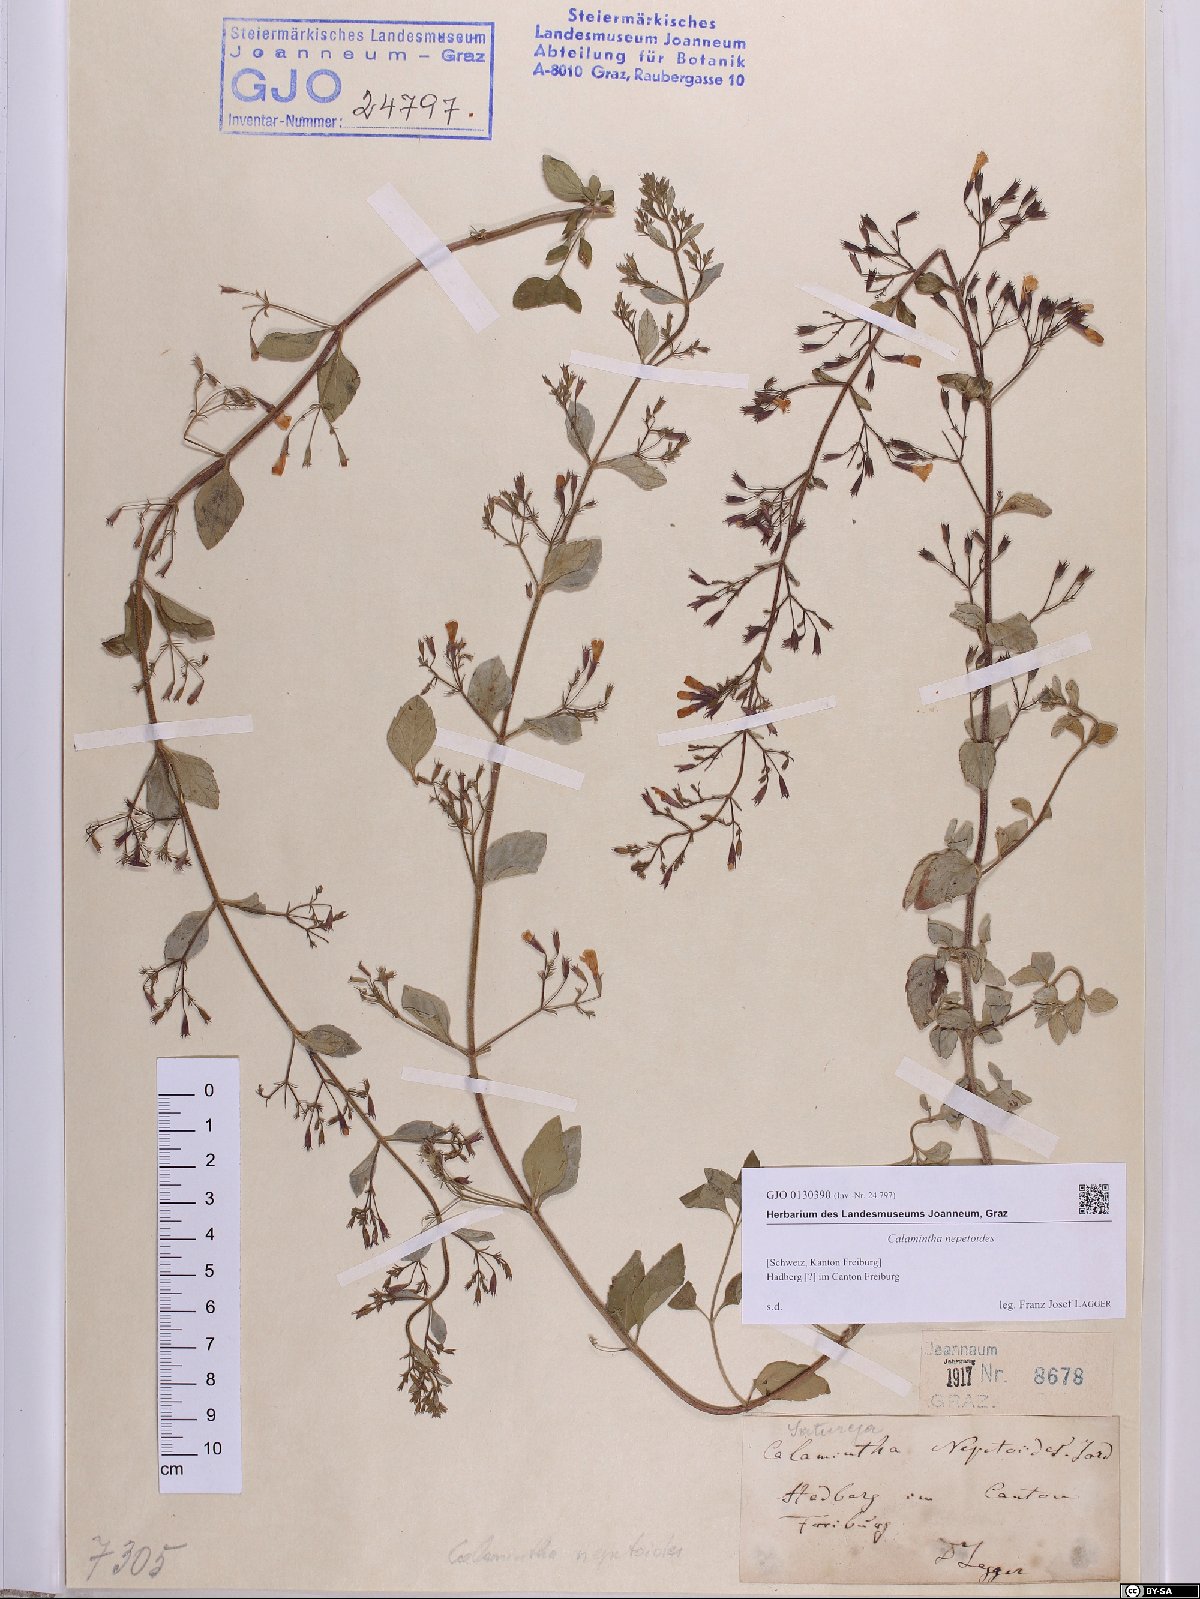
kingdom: Plantae
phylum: Tracheophyta
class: Magnoliopsida
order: Lamiales
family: Lamiaceae
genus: Clinopodium
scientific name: Clinopodium nepeta
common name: Lesser calamint
